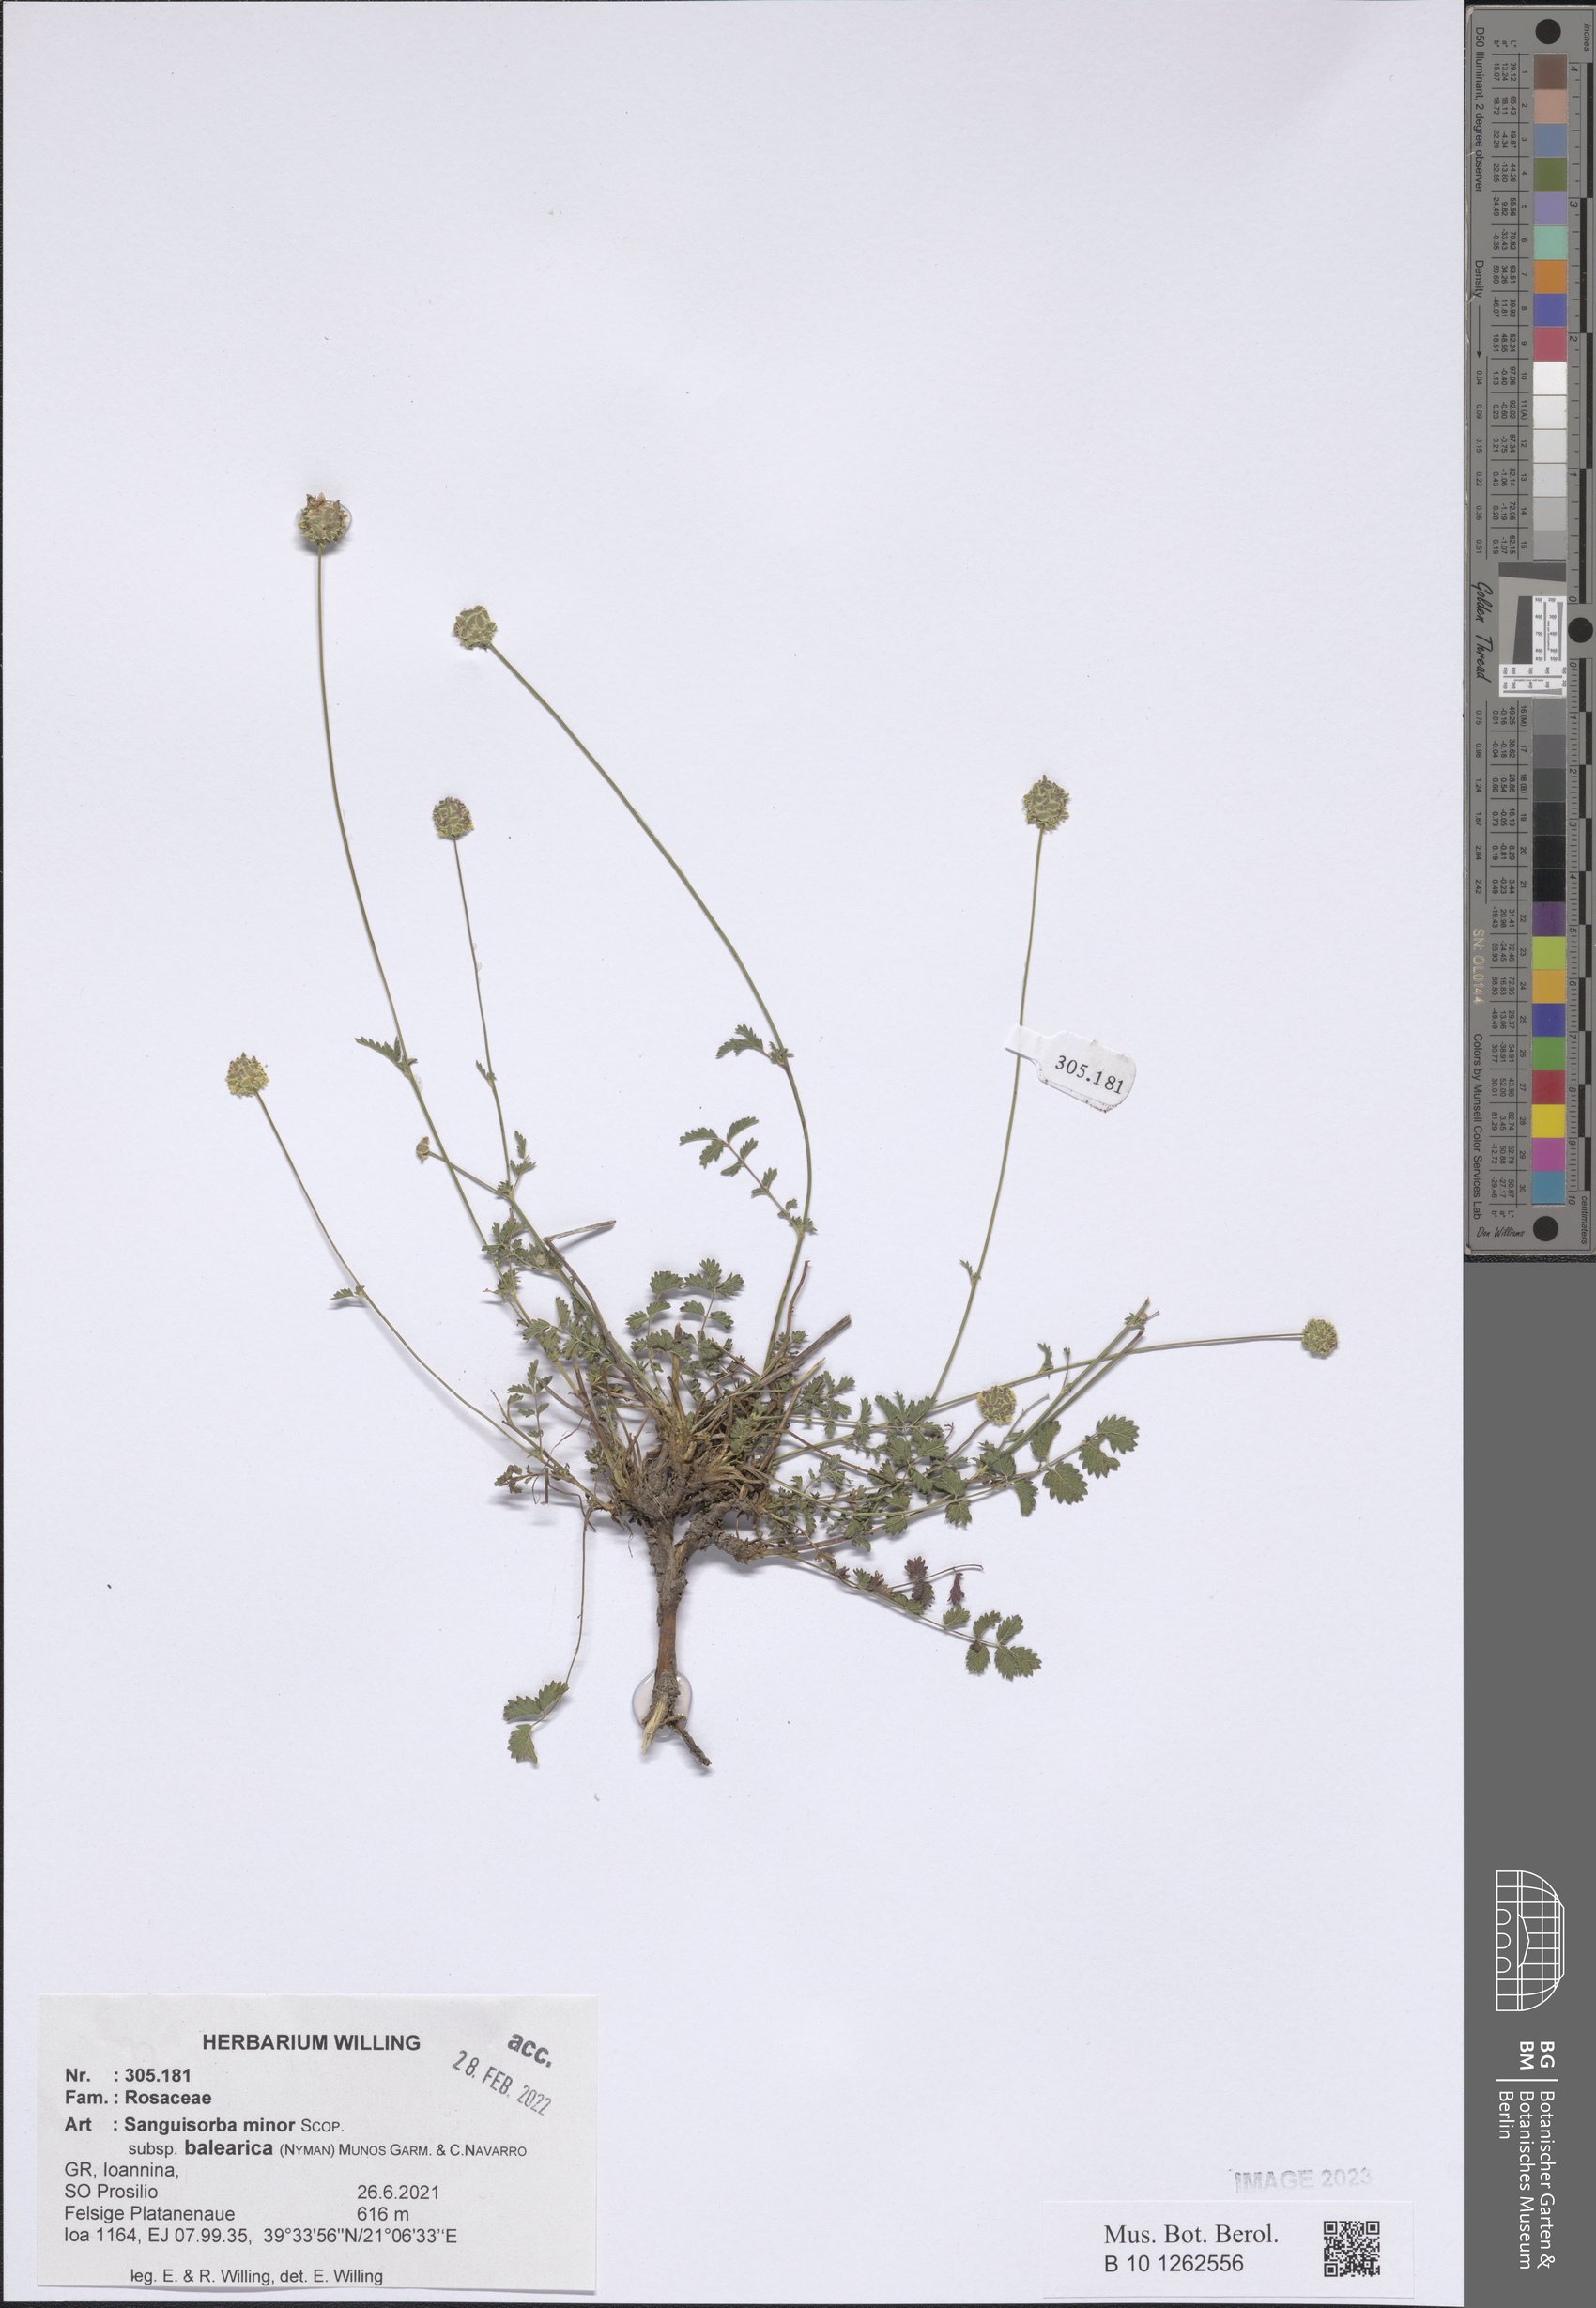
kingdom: Plantae
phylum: Tracheophyta
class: Magnoliopsida
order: Rosales
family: Rosaceae
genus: Poterium
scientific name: Poterium sanguisorba
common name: Salad burnet
